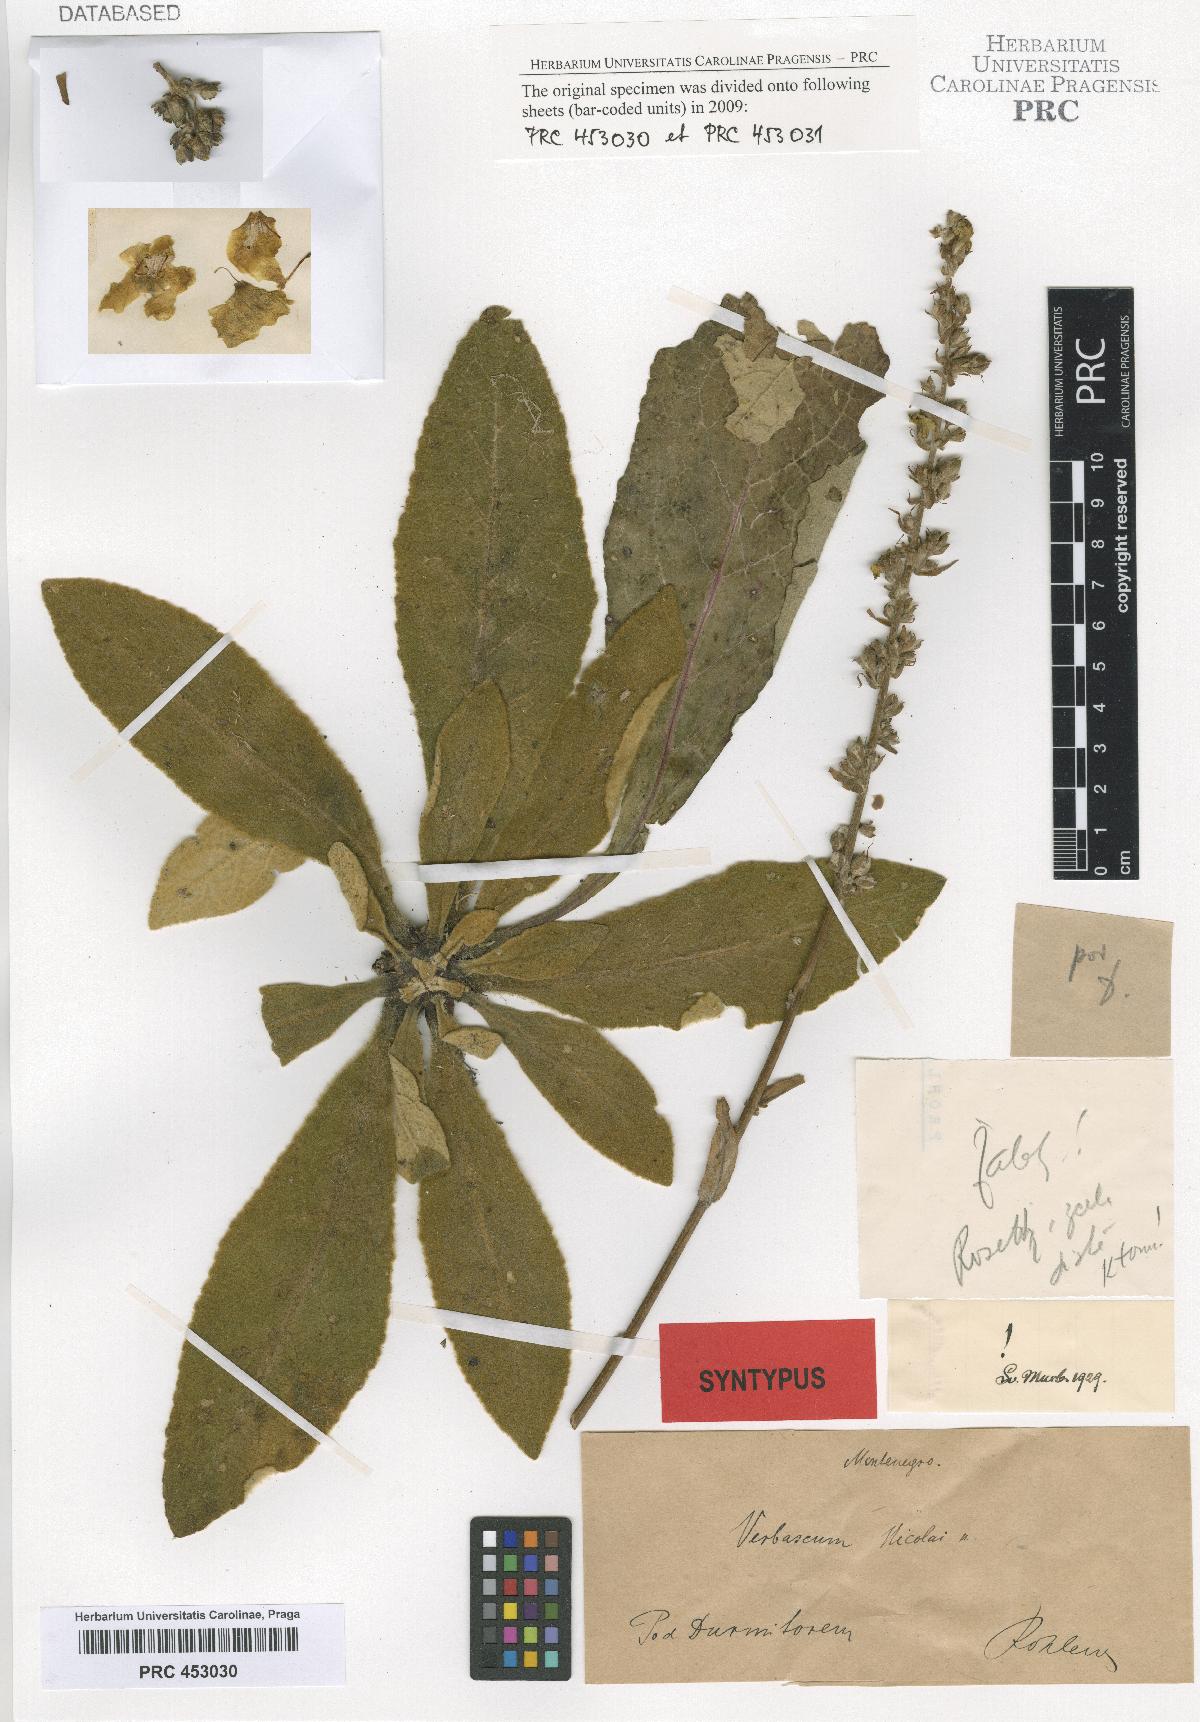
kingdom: Plantae
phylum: Tracheophyta
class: Magnoliopsida
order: Lamiales
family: Scrophulariaceae
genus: Verbascum
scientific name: Verbascum nicolai
